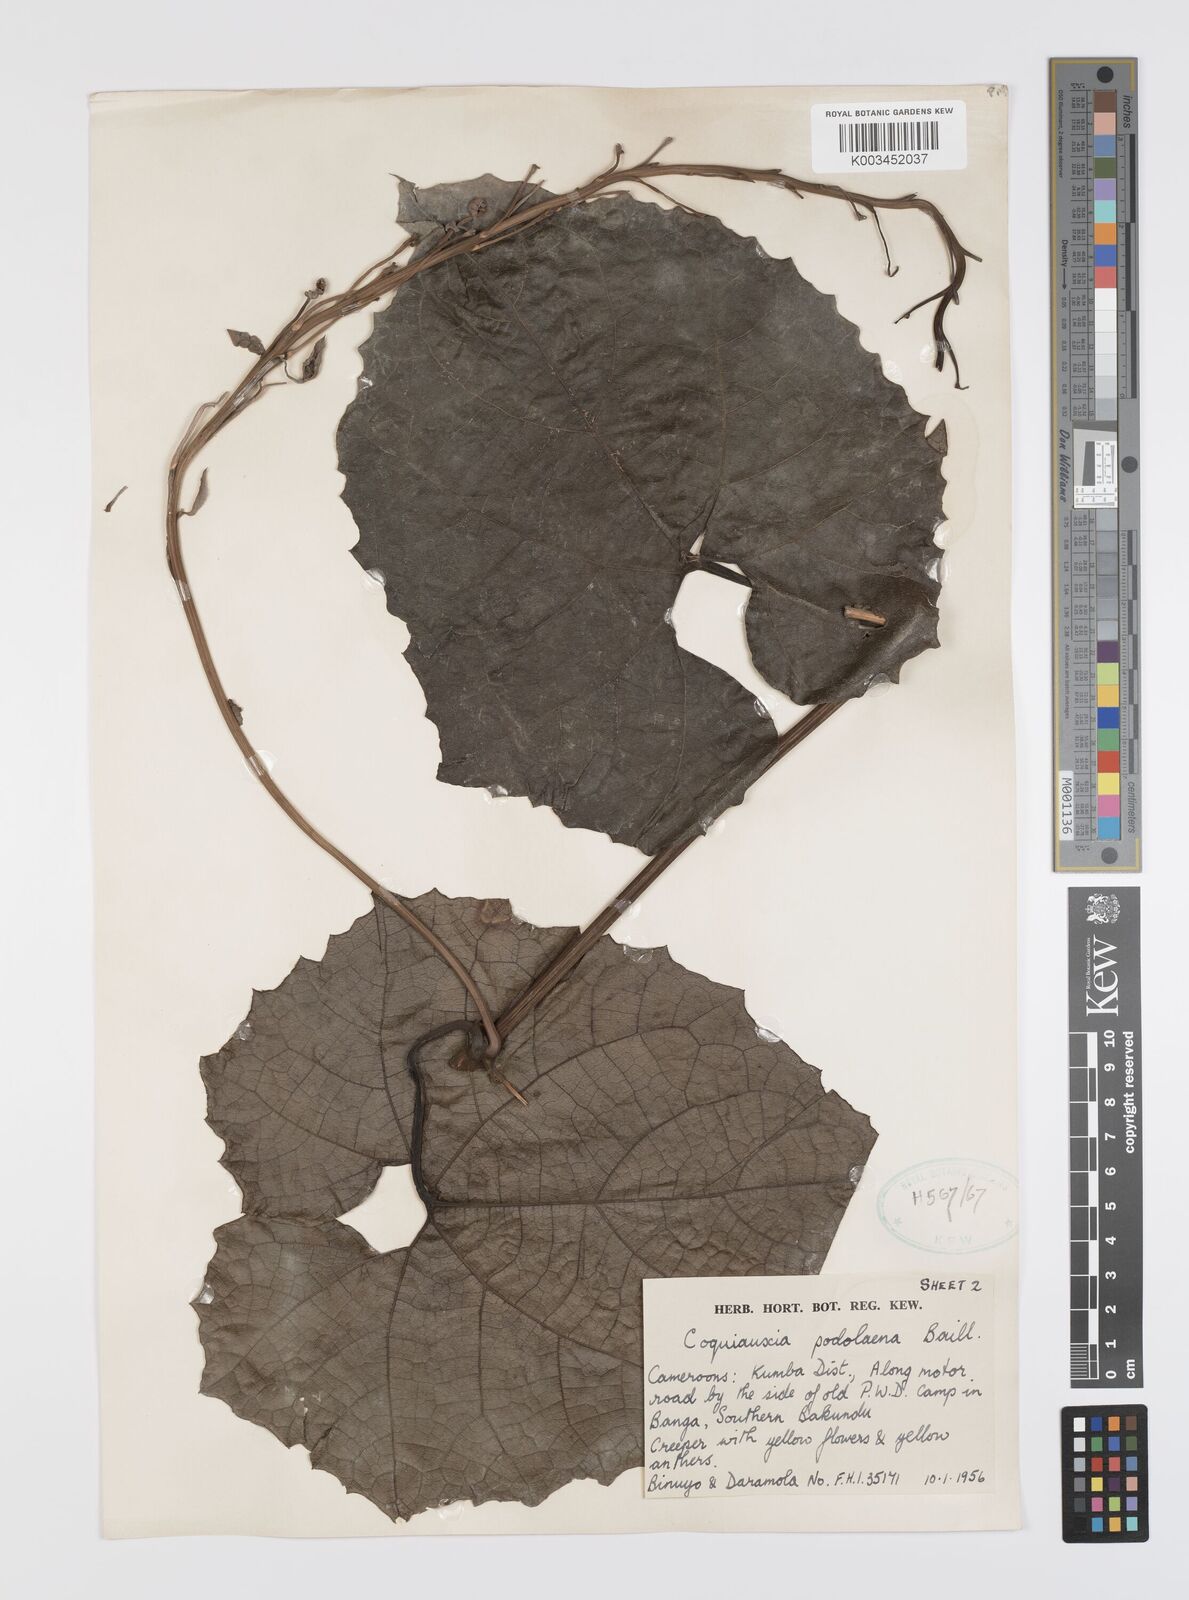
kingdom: Plantae
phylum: Tracheophyta
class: Magnoliopsida
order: Cucurbitales
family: Cucurbitaceae
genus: Cogniauxia
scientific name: Cogniauxia podolaena
